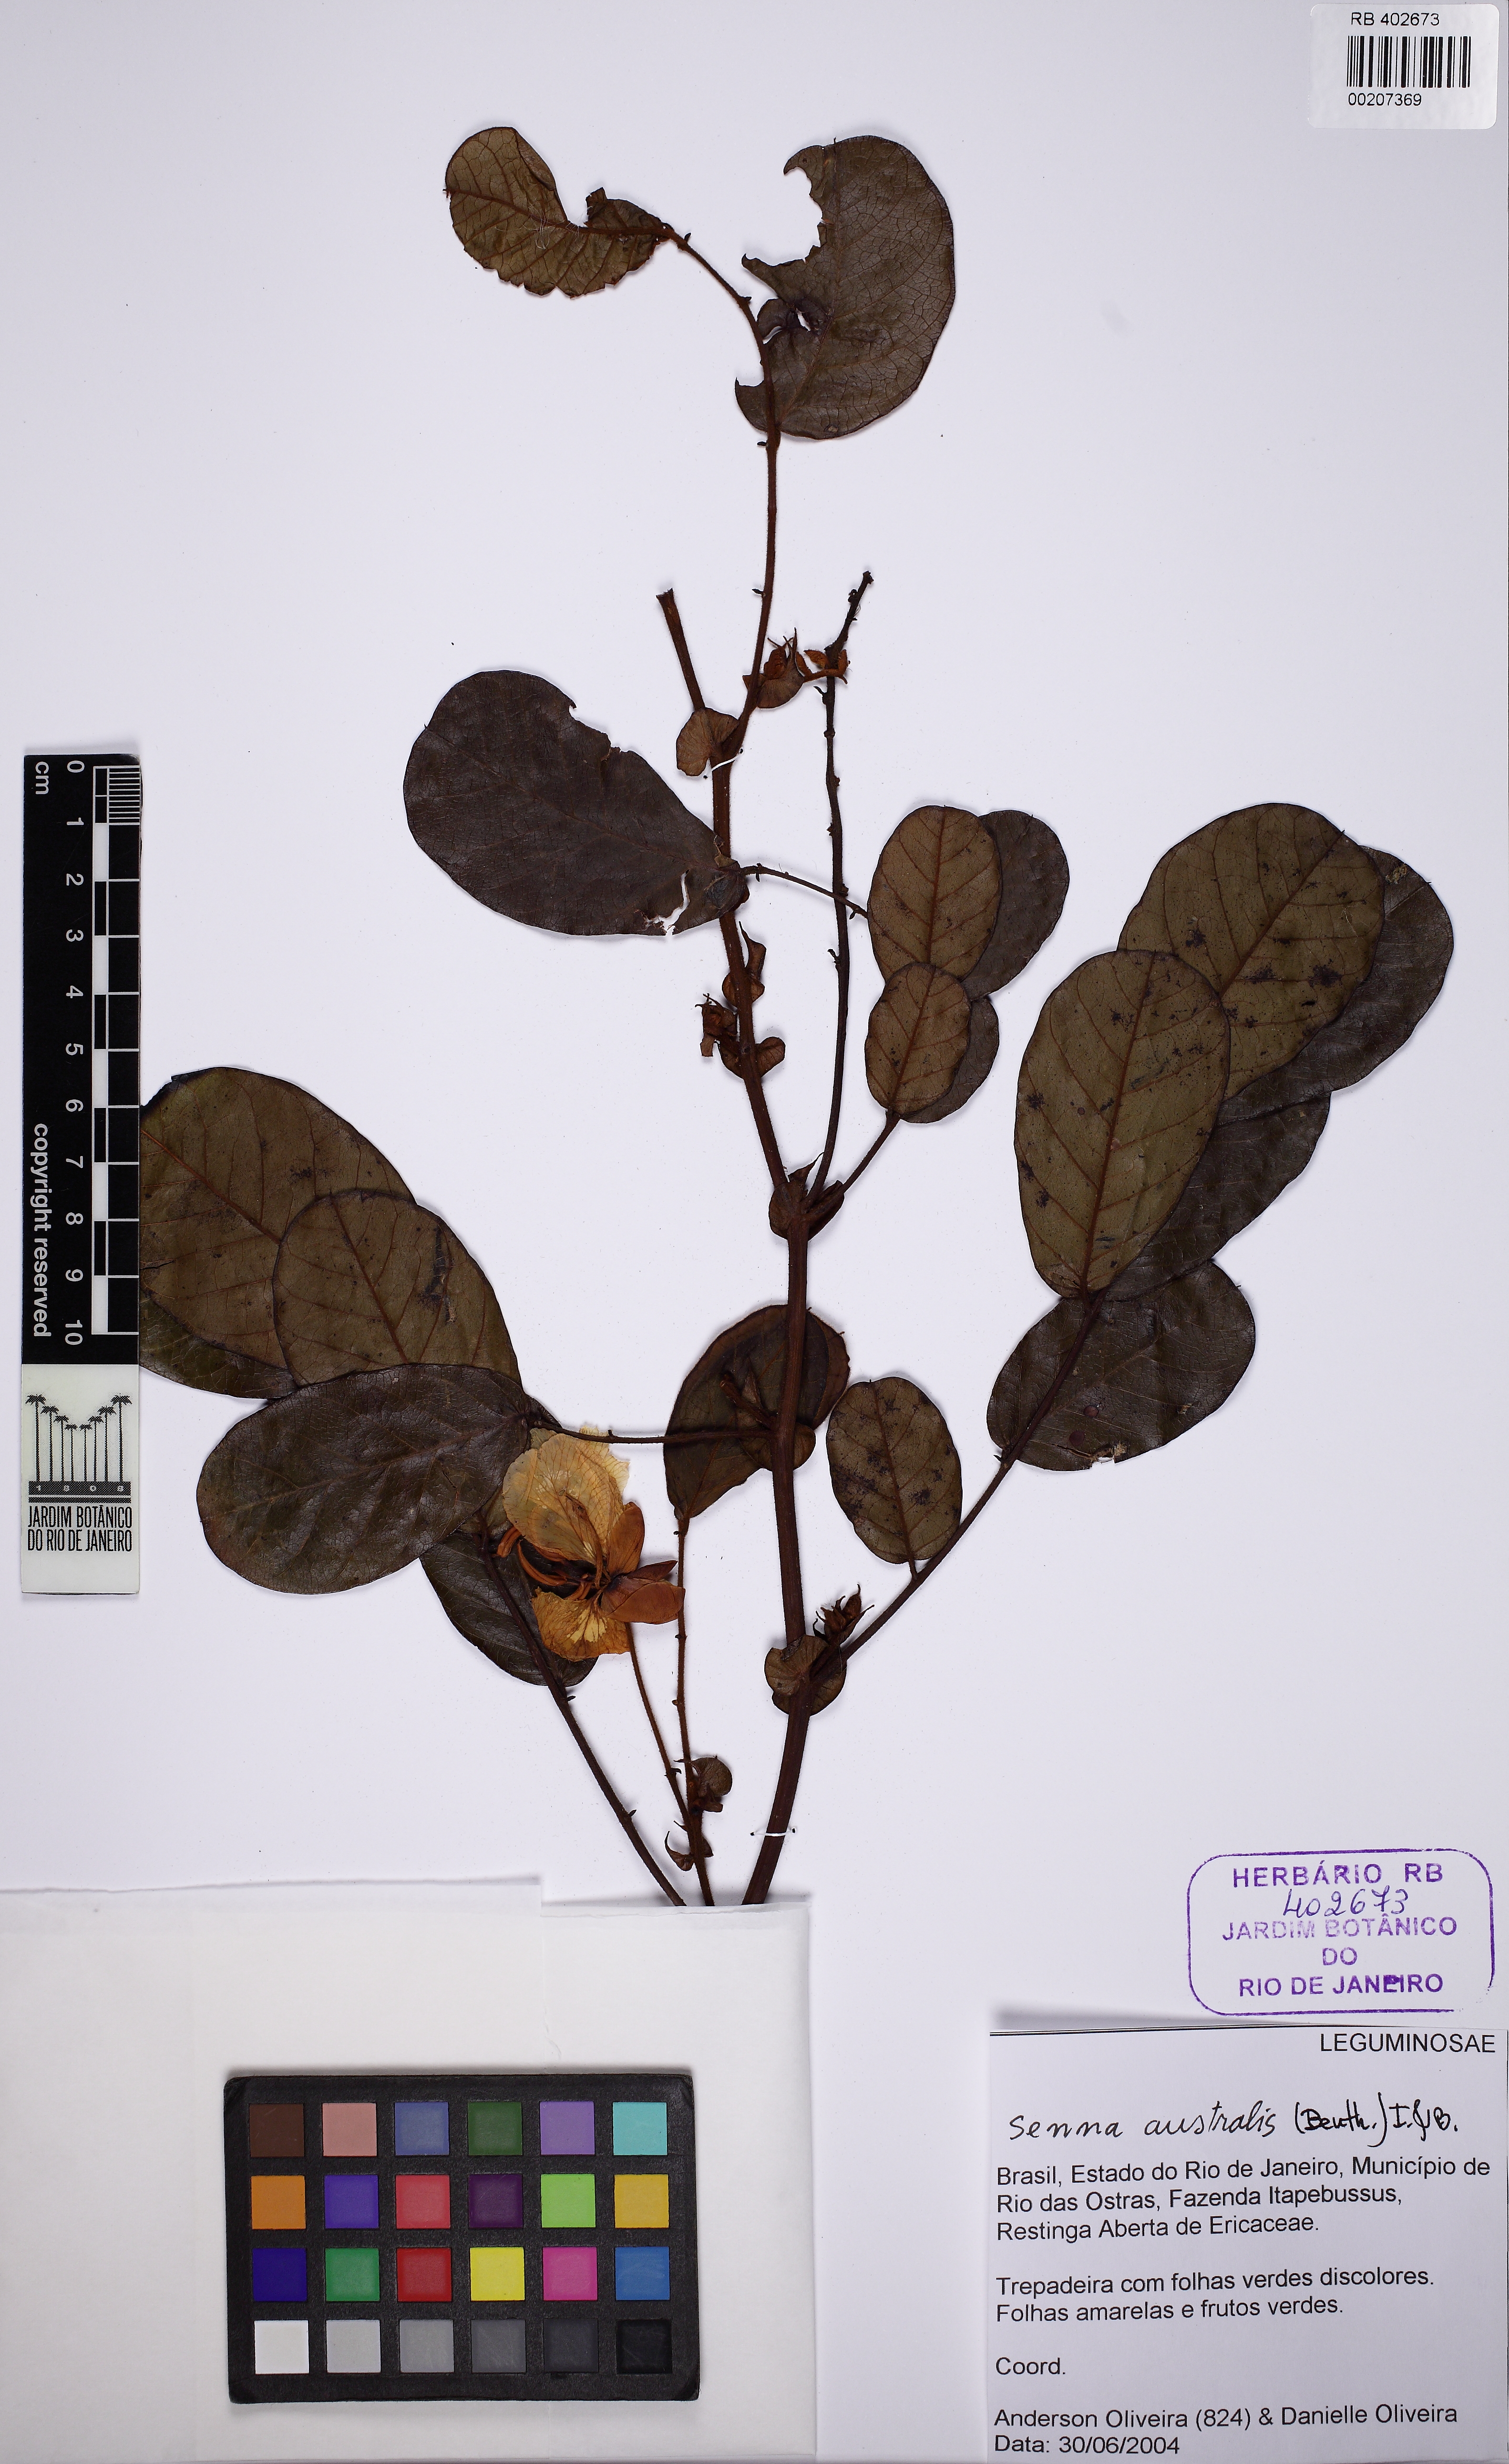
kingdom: Plantae
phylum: Tracheophyta
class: Magnoliopsida
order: Fabales
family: Fabaceae
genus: Senna
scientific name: Senna appendiculata
